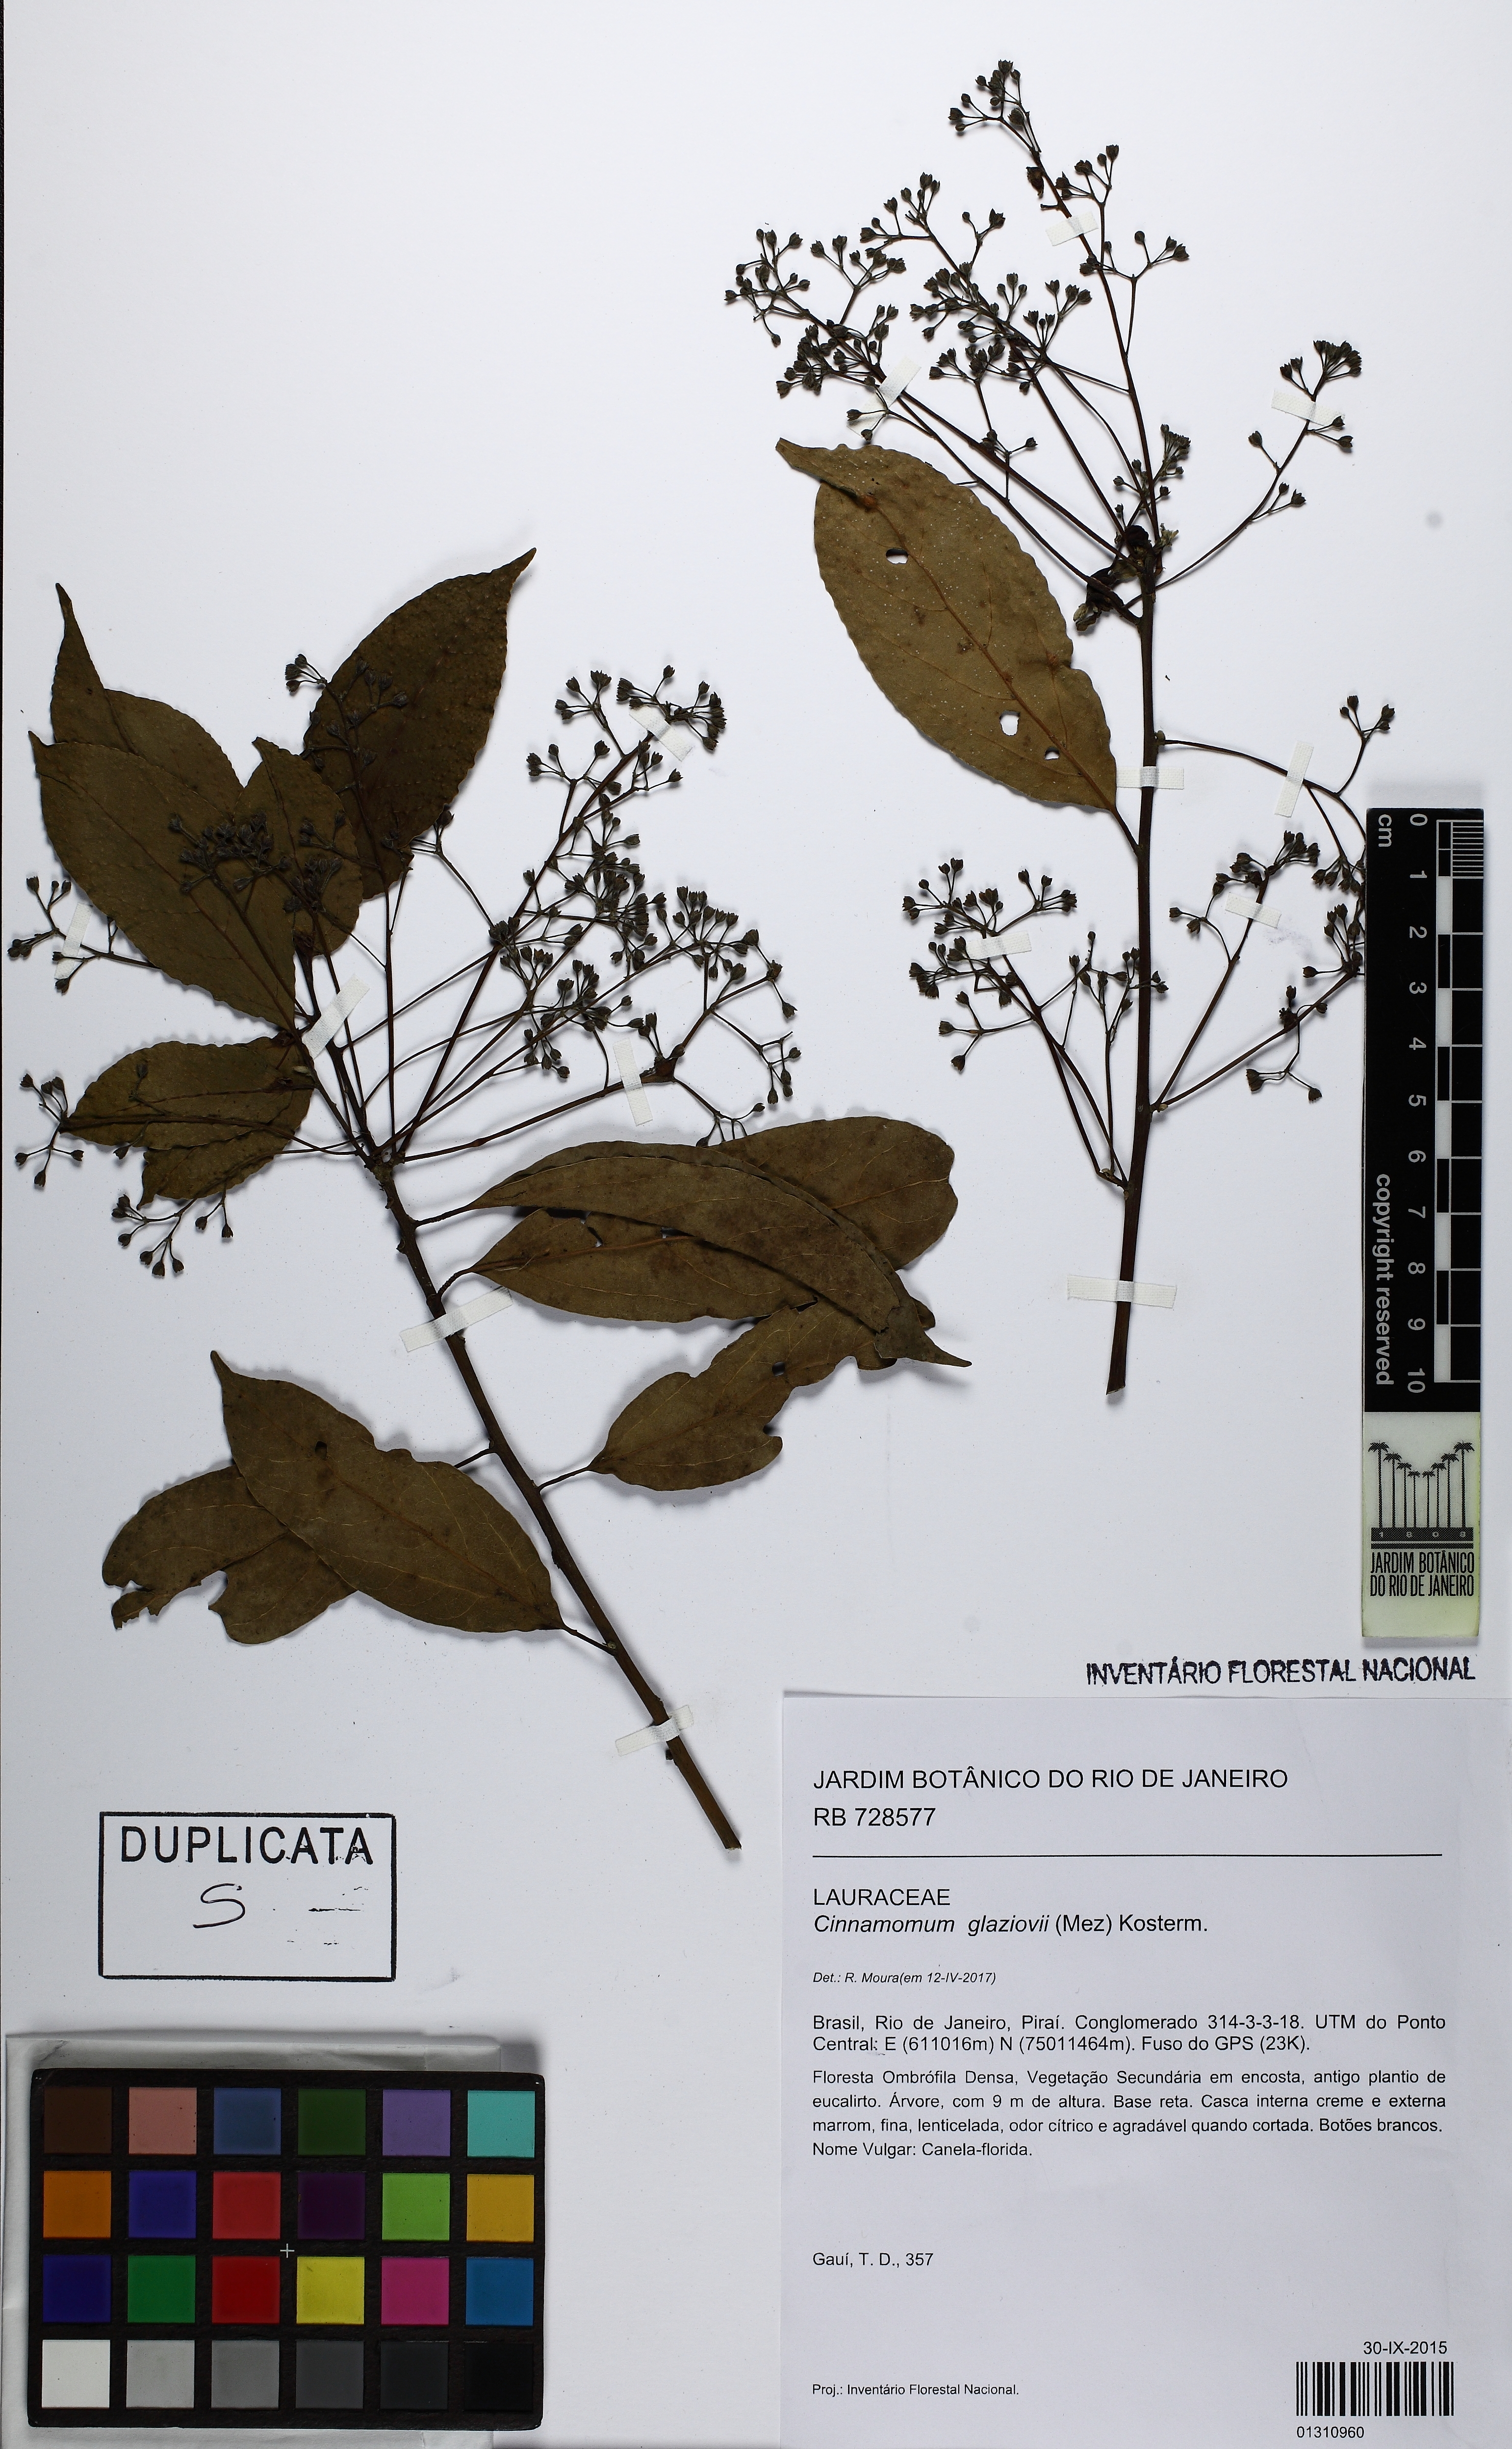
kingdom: Plantae
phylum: Tracheophyta
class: Magnoliopsida
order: Laurales
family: Lauraceae
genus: Aiouea
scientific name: Aiouea glaziovii
